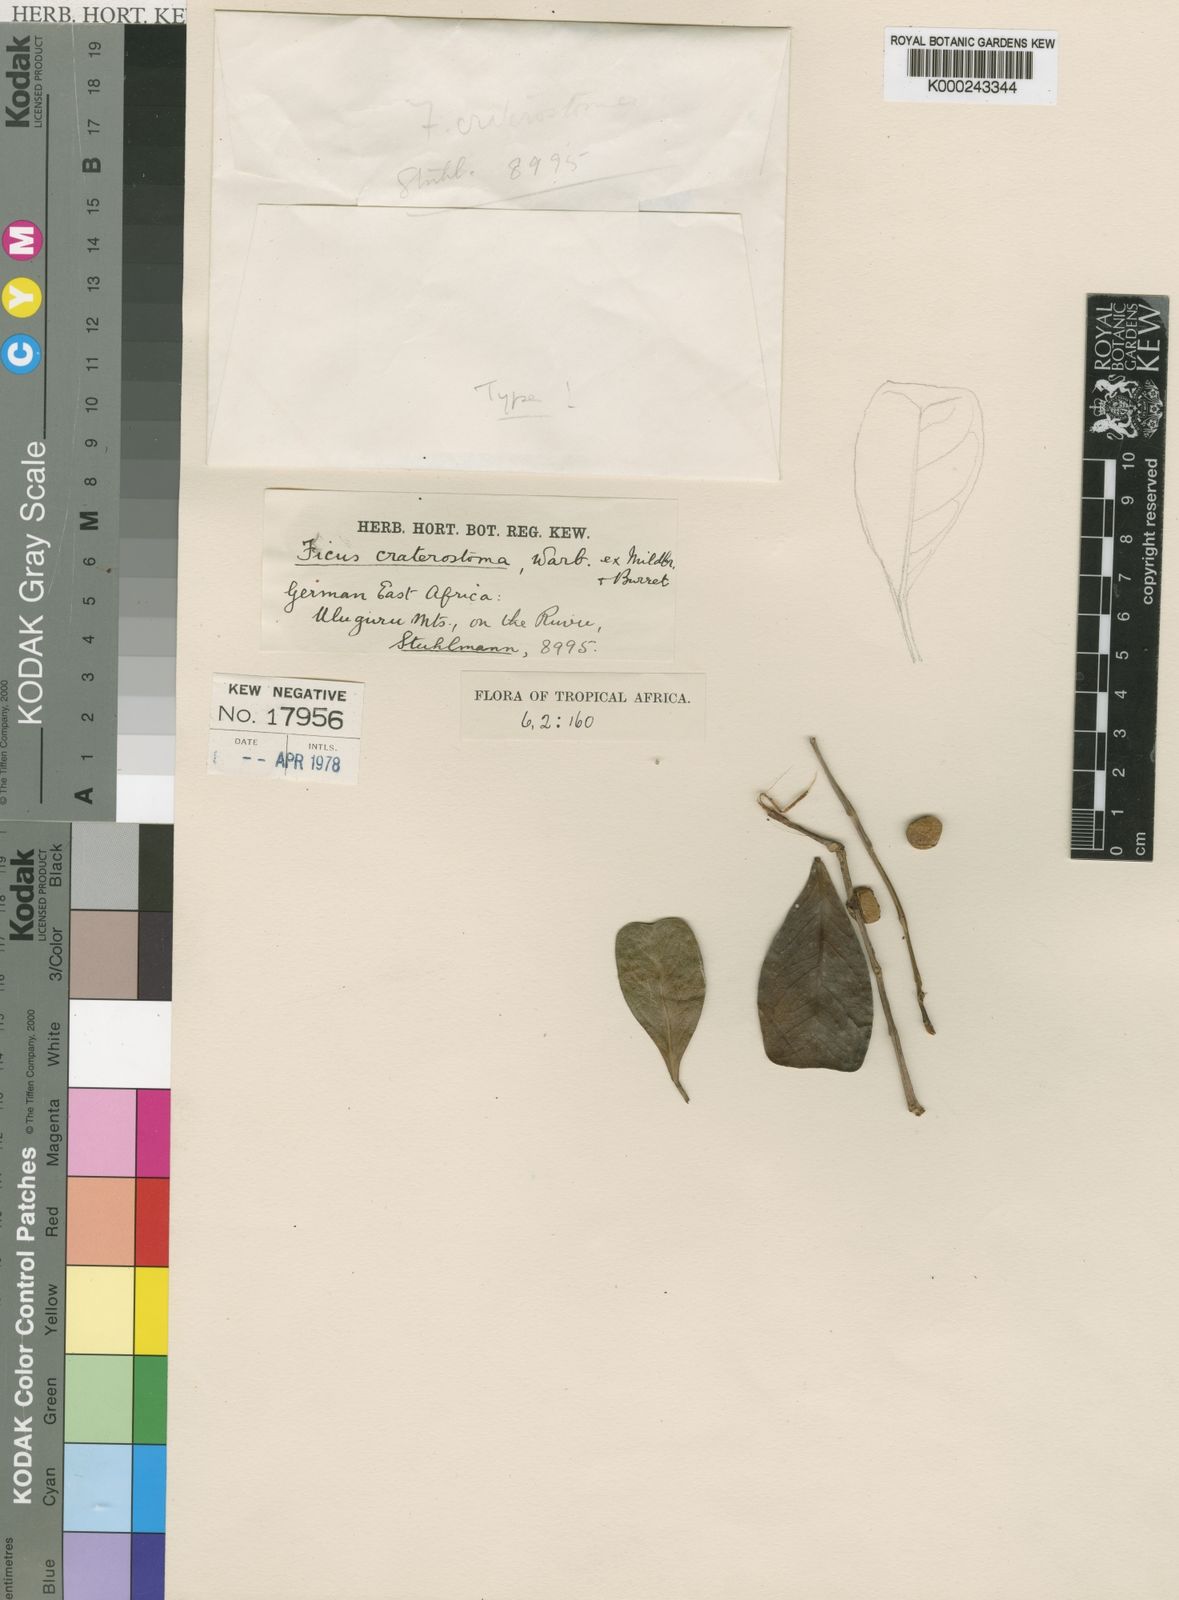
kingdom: Plantae
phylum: Tracheophyta
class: Magnoliopsida
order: Rosales
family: Moraceae
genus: Ficus
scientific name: Ficus craterostoma
